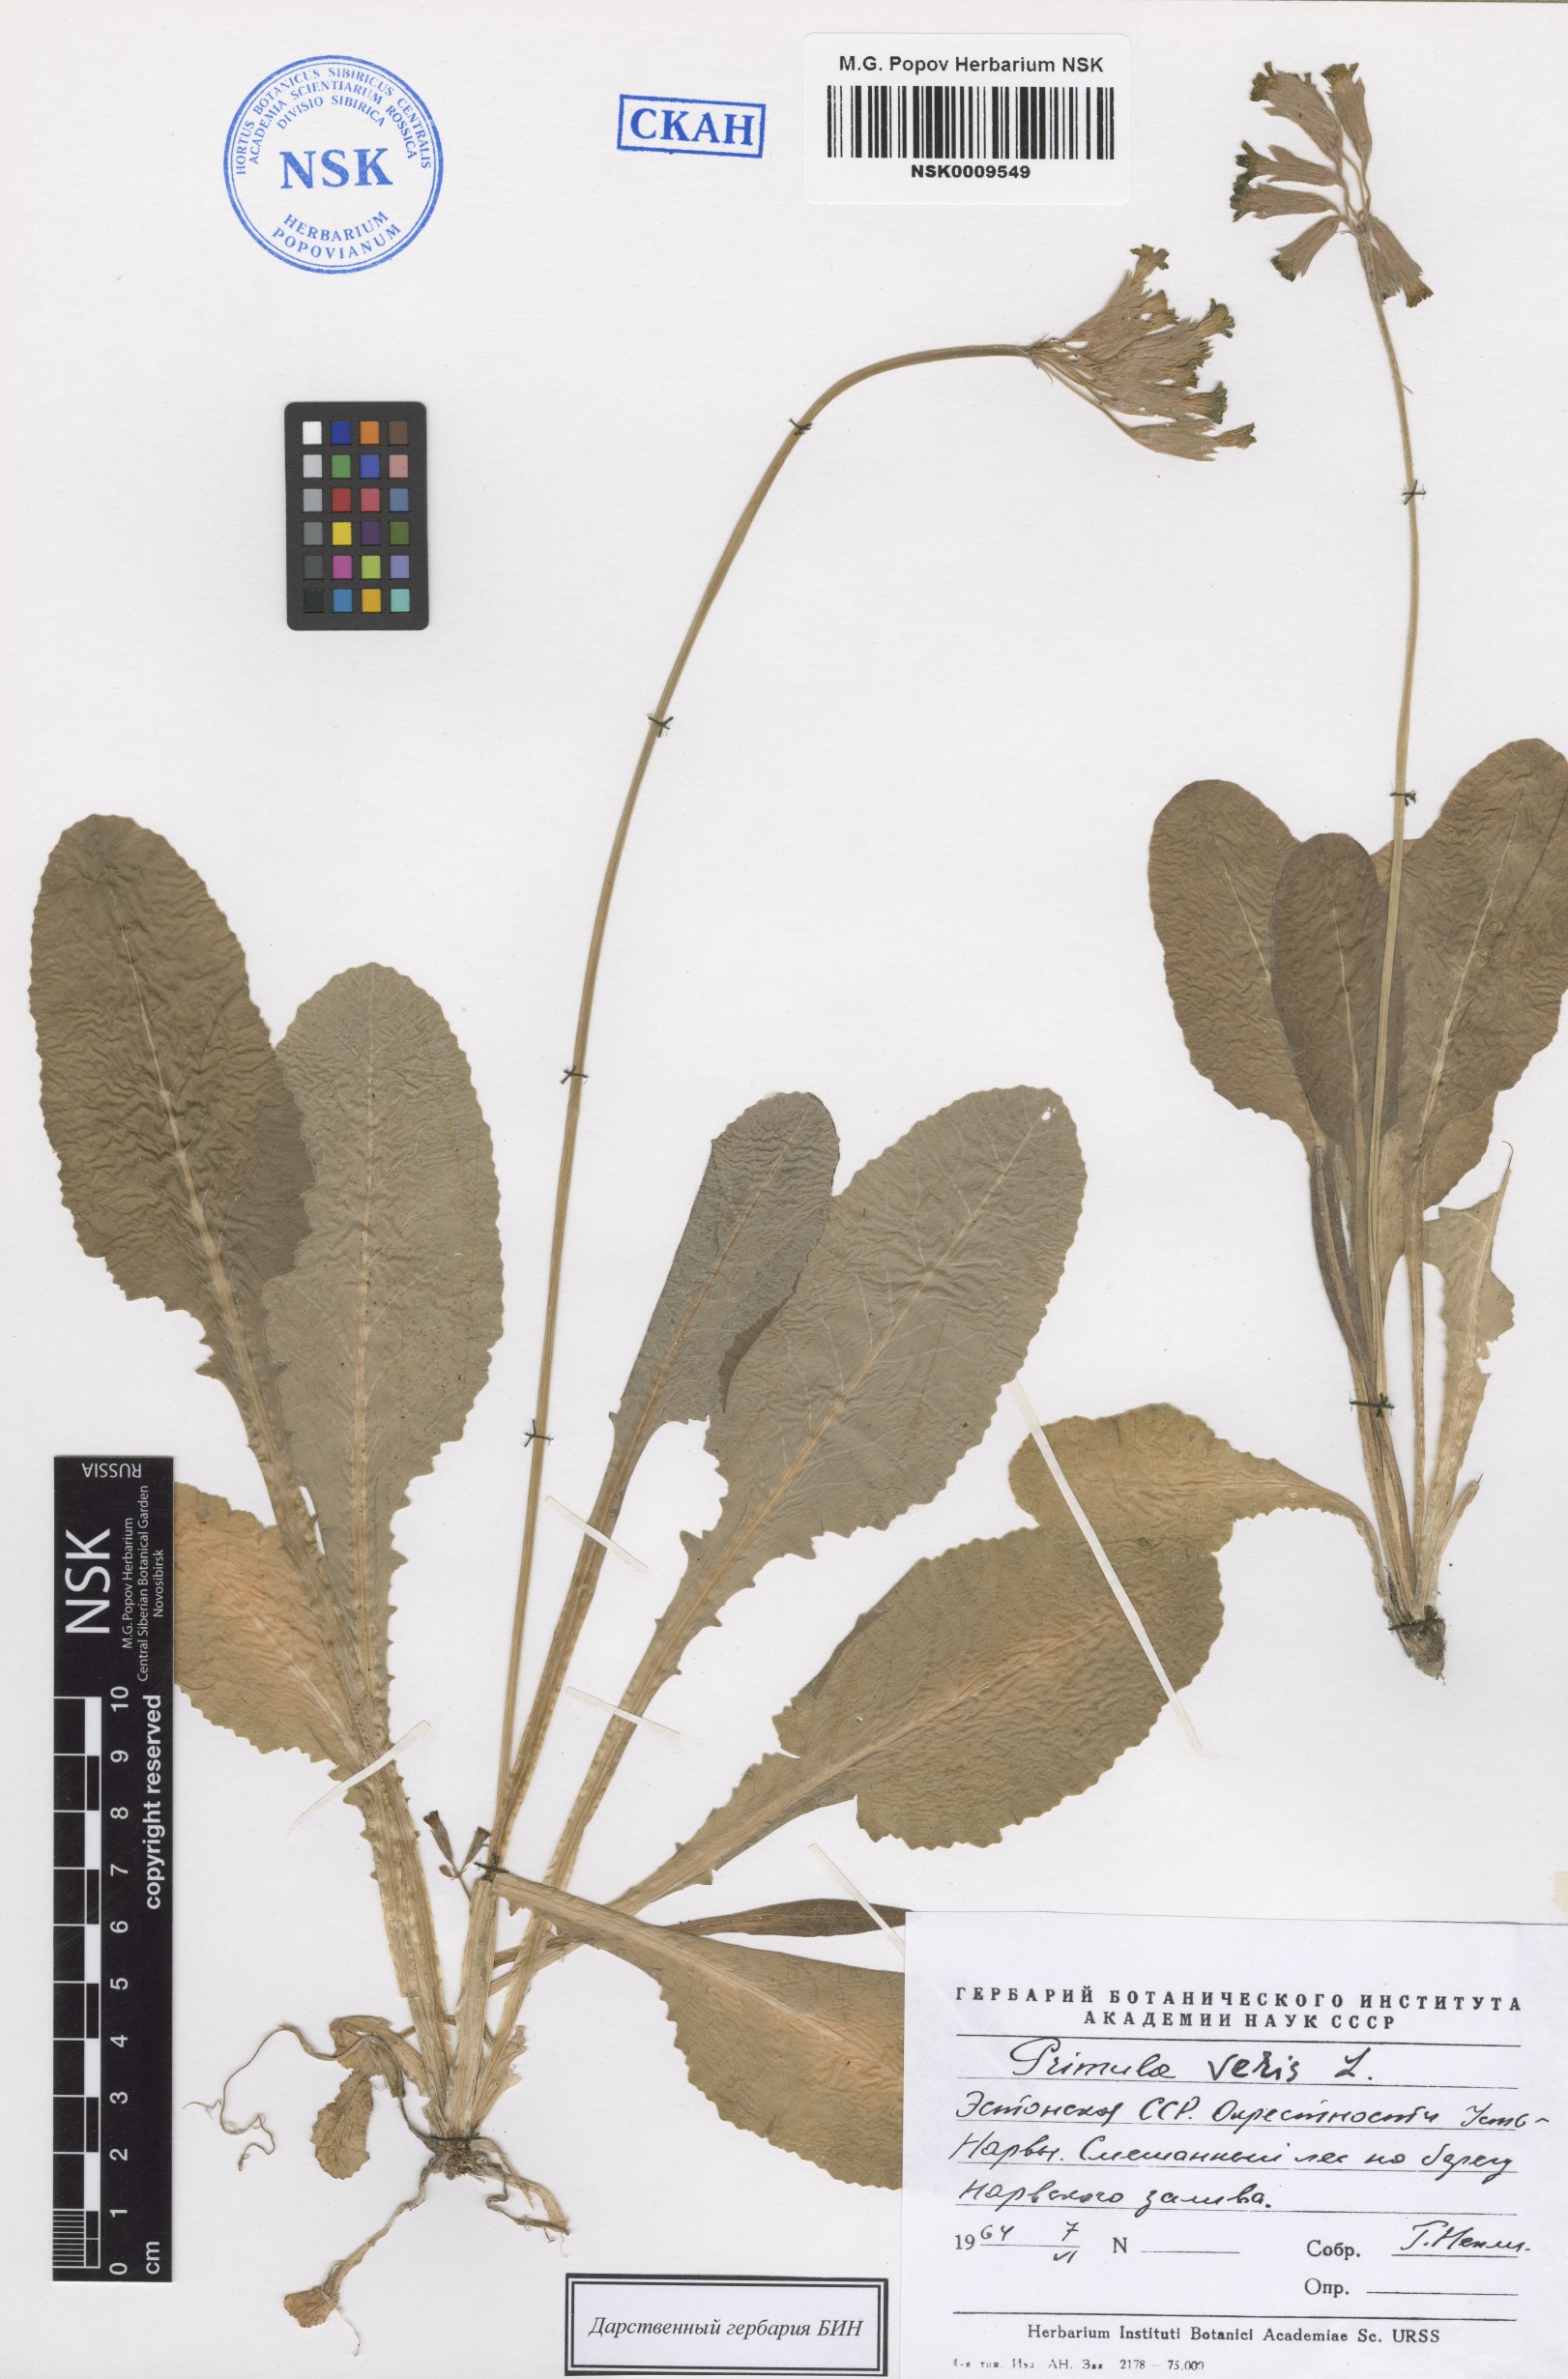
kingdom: Plantae
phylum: Tracheophyta
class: Magnoliopsida
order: Ericales
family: Primulaceae
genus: Primula
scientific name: Primula veris
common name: Cowslip
